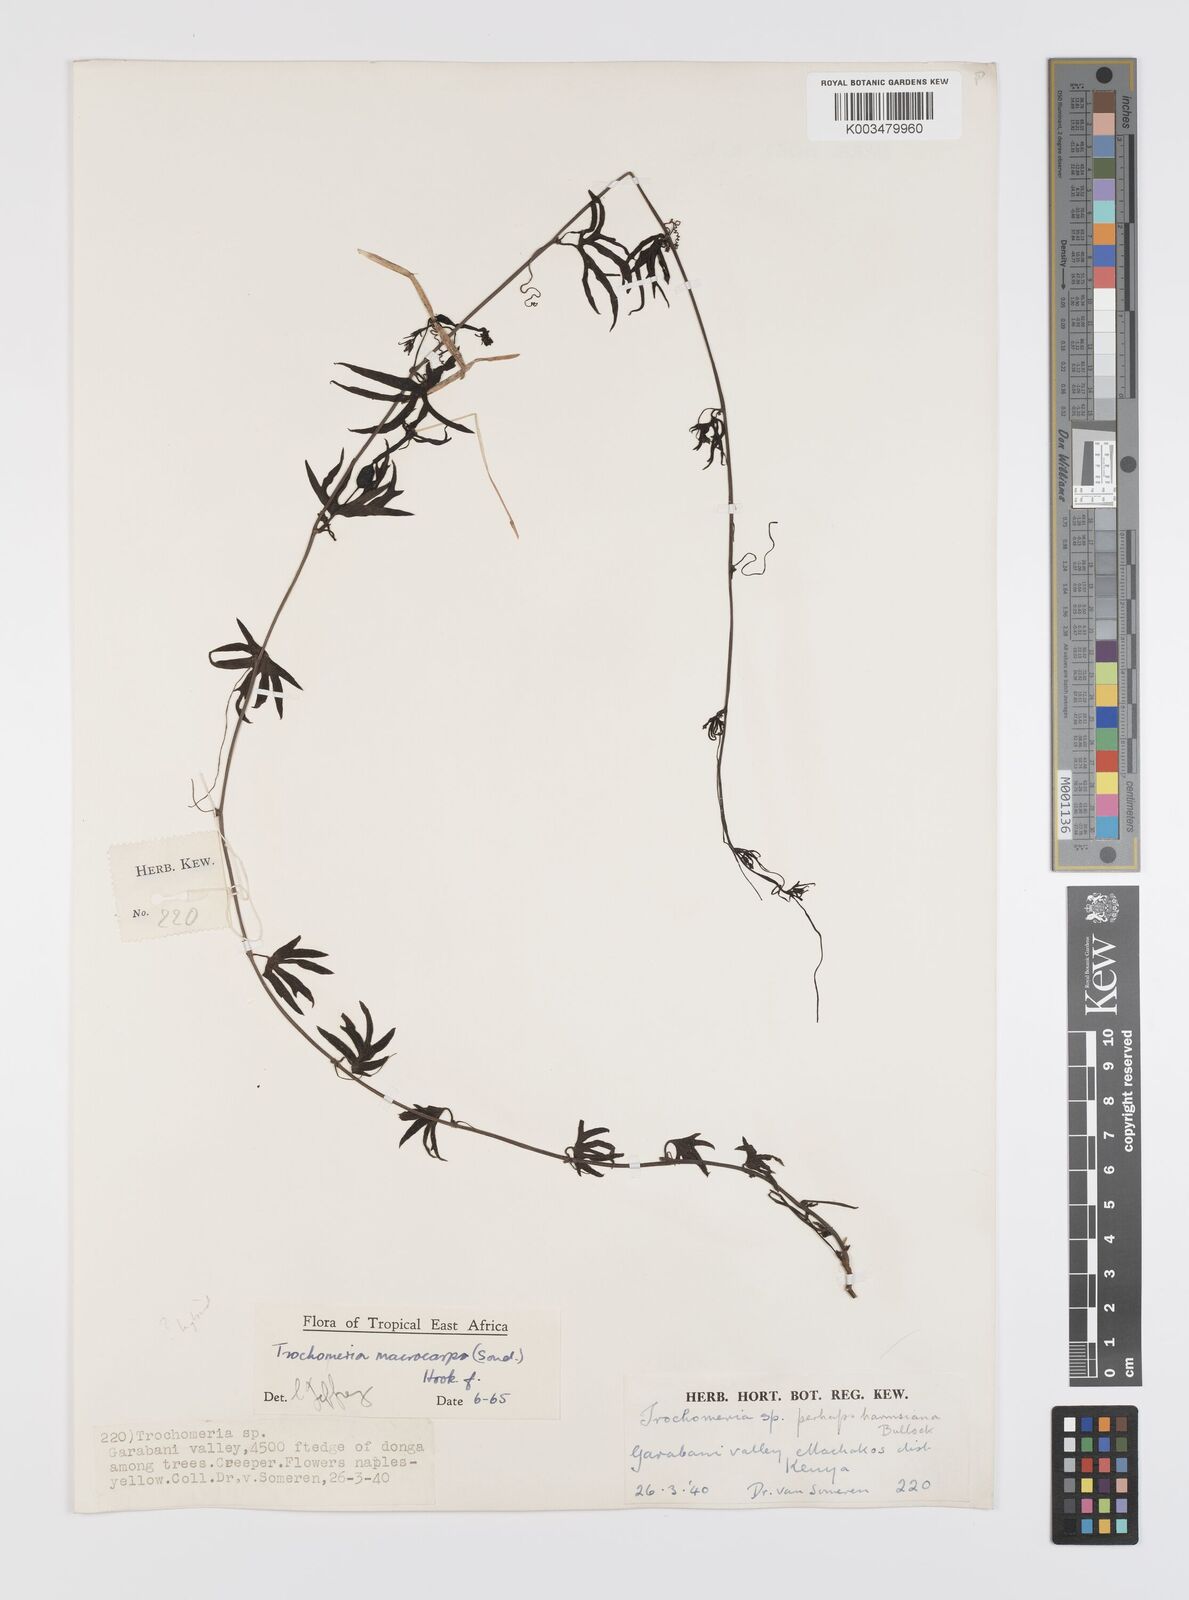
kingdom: Plantae
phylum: Tracheophyta
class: Magnoliopsida
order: Cucurbitales
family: Cucurbitaceae
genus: Trochomeria
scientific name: Trochomeria macrocarpa
